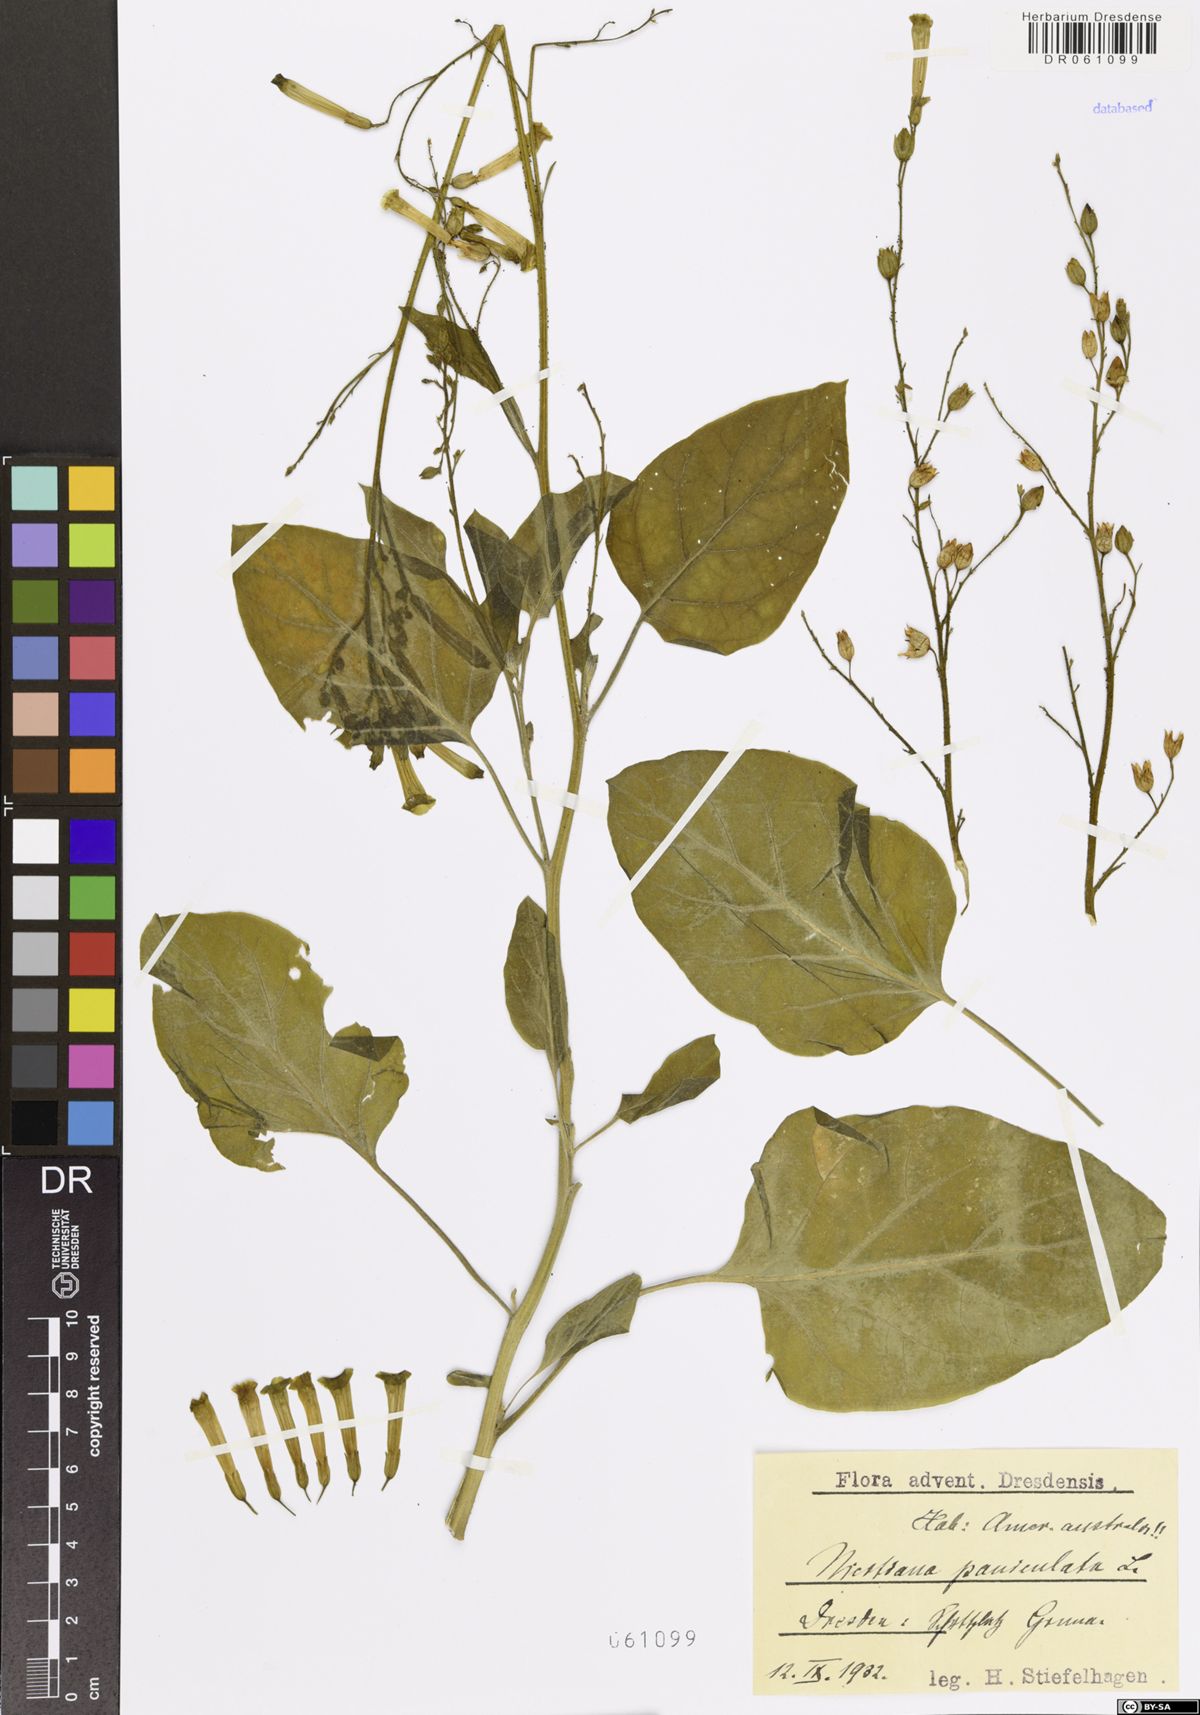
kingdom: Plantae
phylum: Tracheophyta
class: Magnoliopsida
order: Solanales
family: Solanaceae
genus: Nicotiana
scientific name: Nicotiana paniculata
